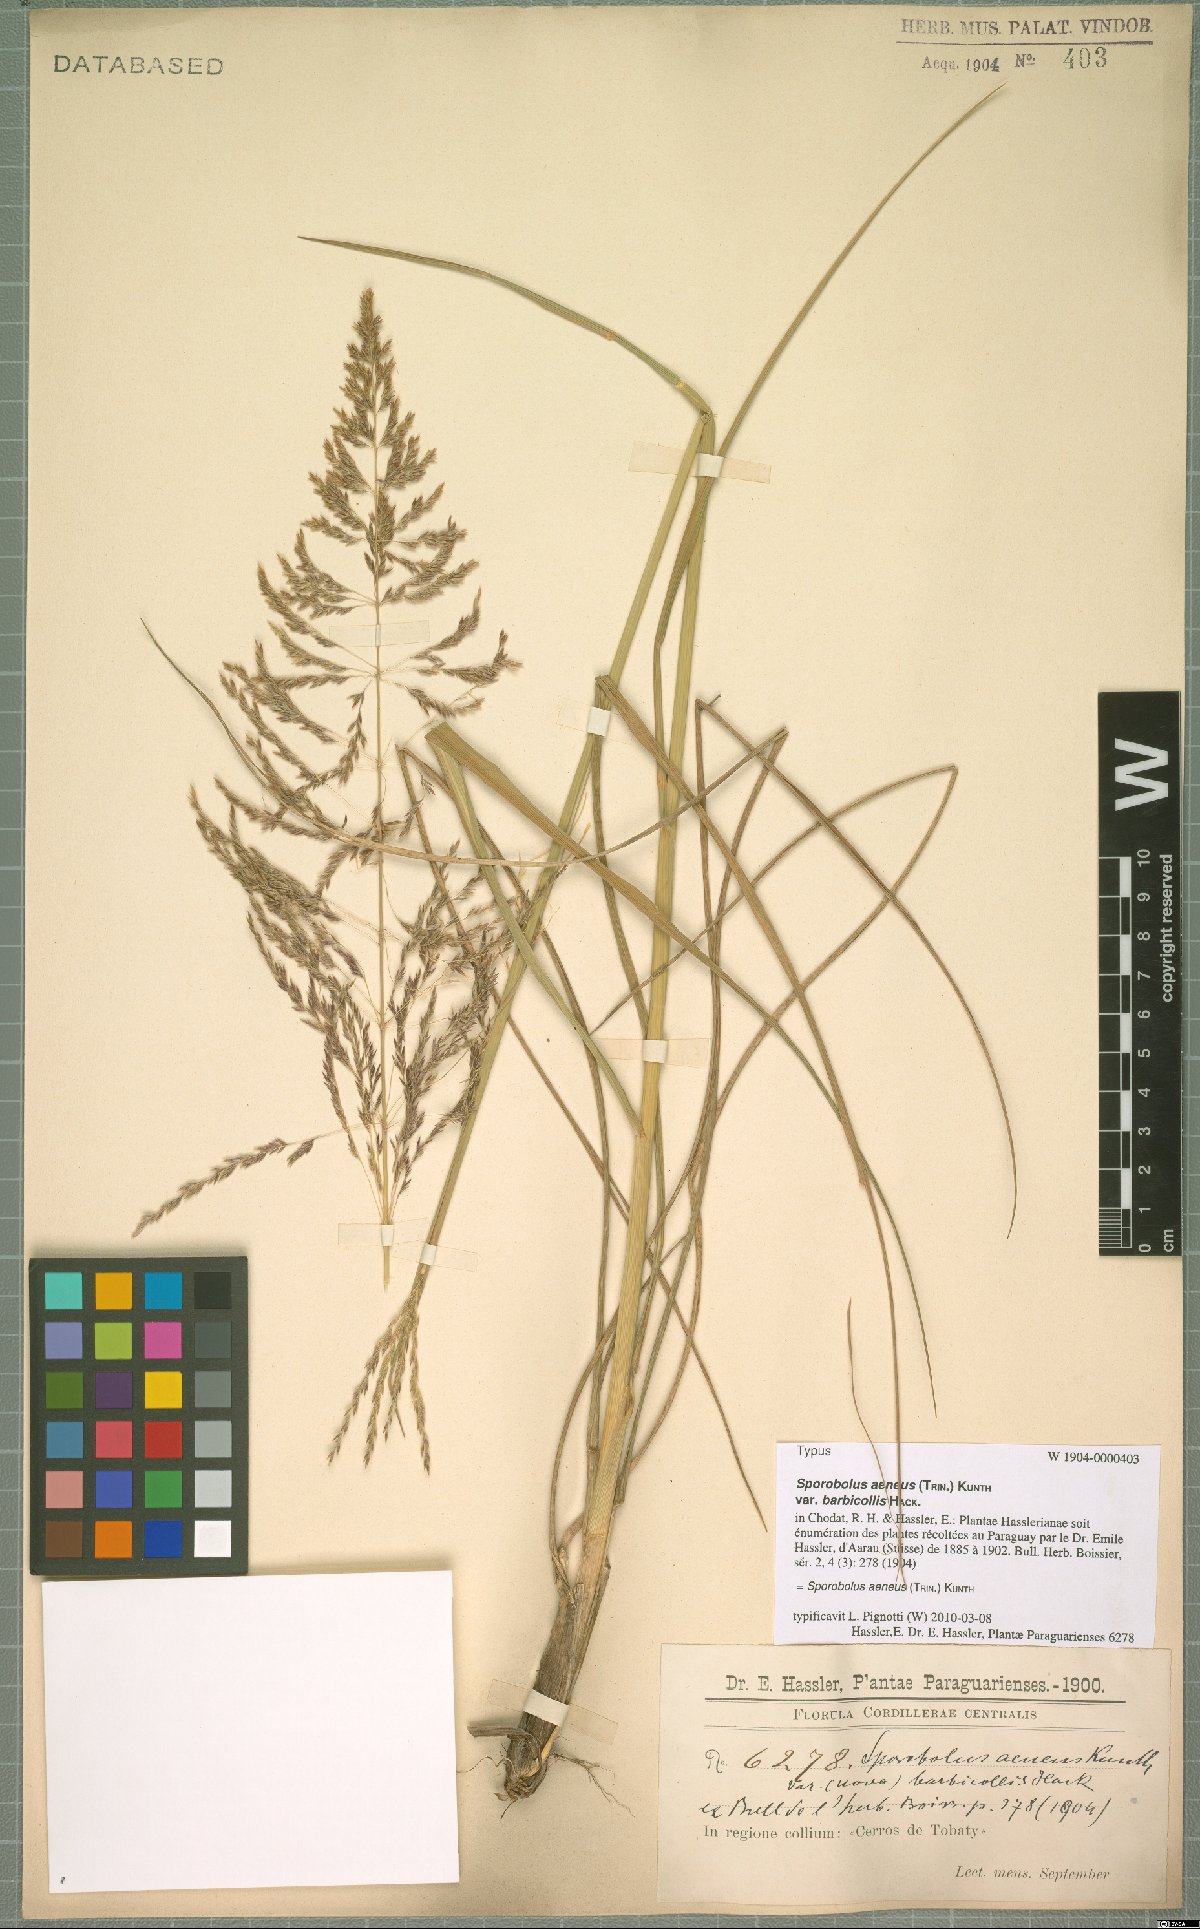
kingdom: Plantae
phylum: Tracheophyta
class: Liliopsida
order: Poales
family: Poaceae
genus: Sporobolus
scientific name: Sporobolus aeneus
